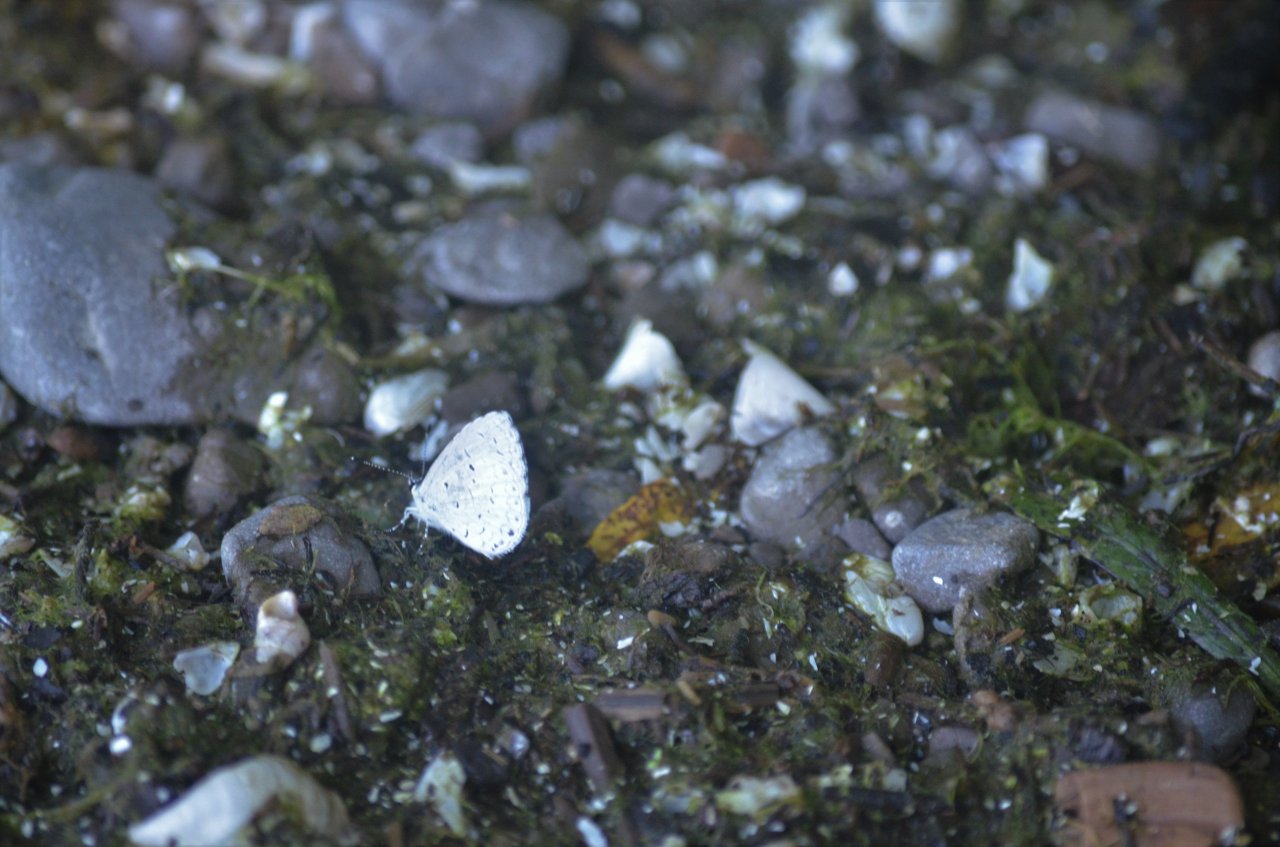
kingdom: Animalia
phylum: Arthropoda
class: Insecta
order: Lepidoptera
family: Lycaenidae
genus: Celastrina
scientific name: Celastrina
